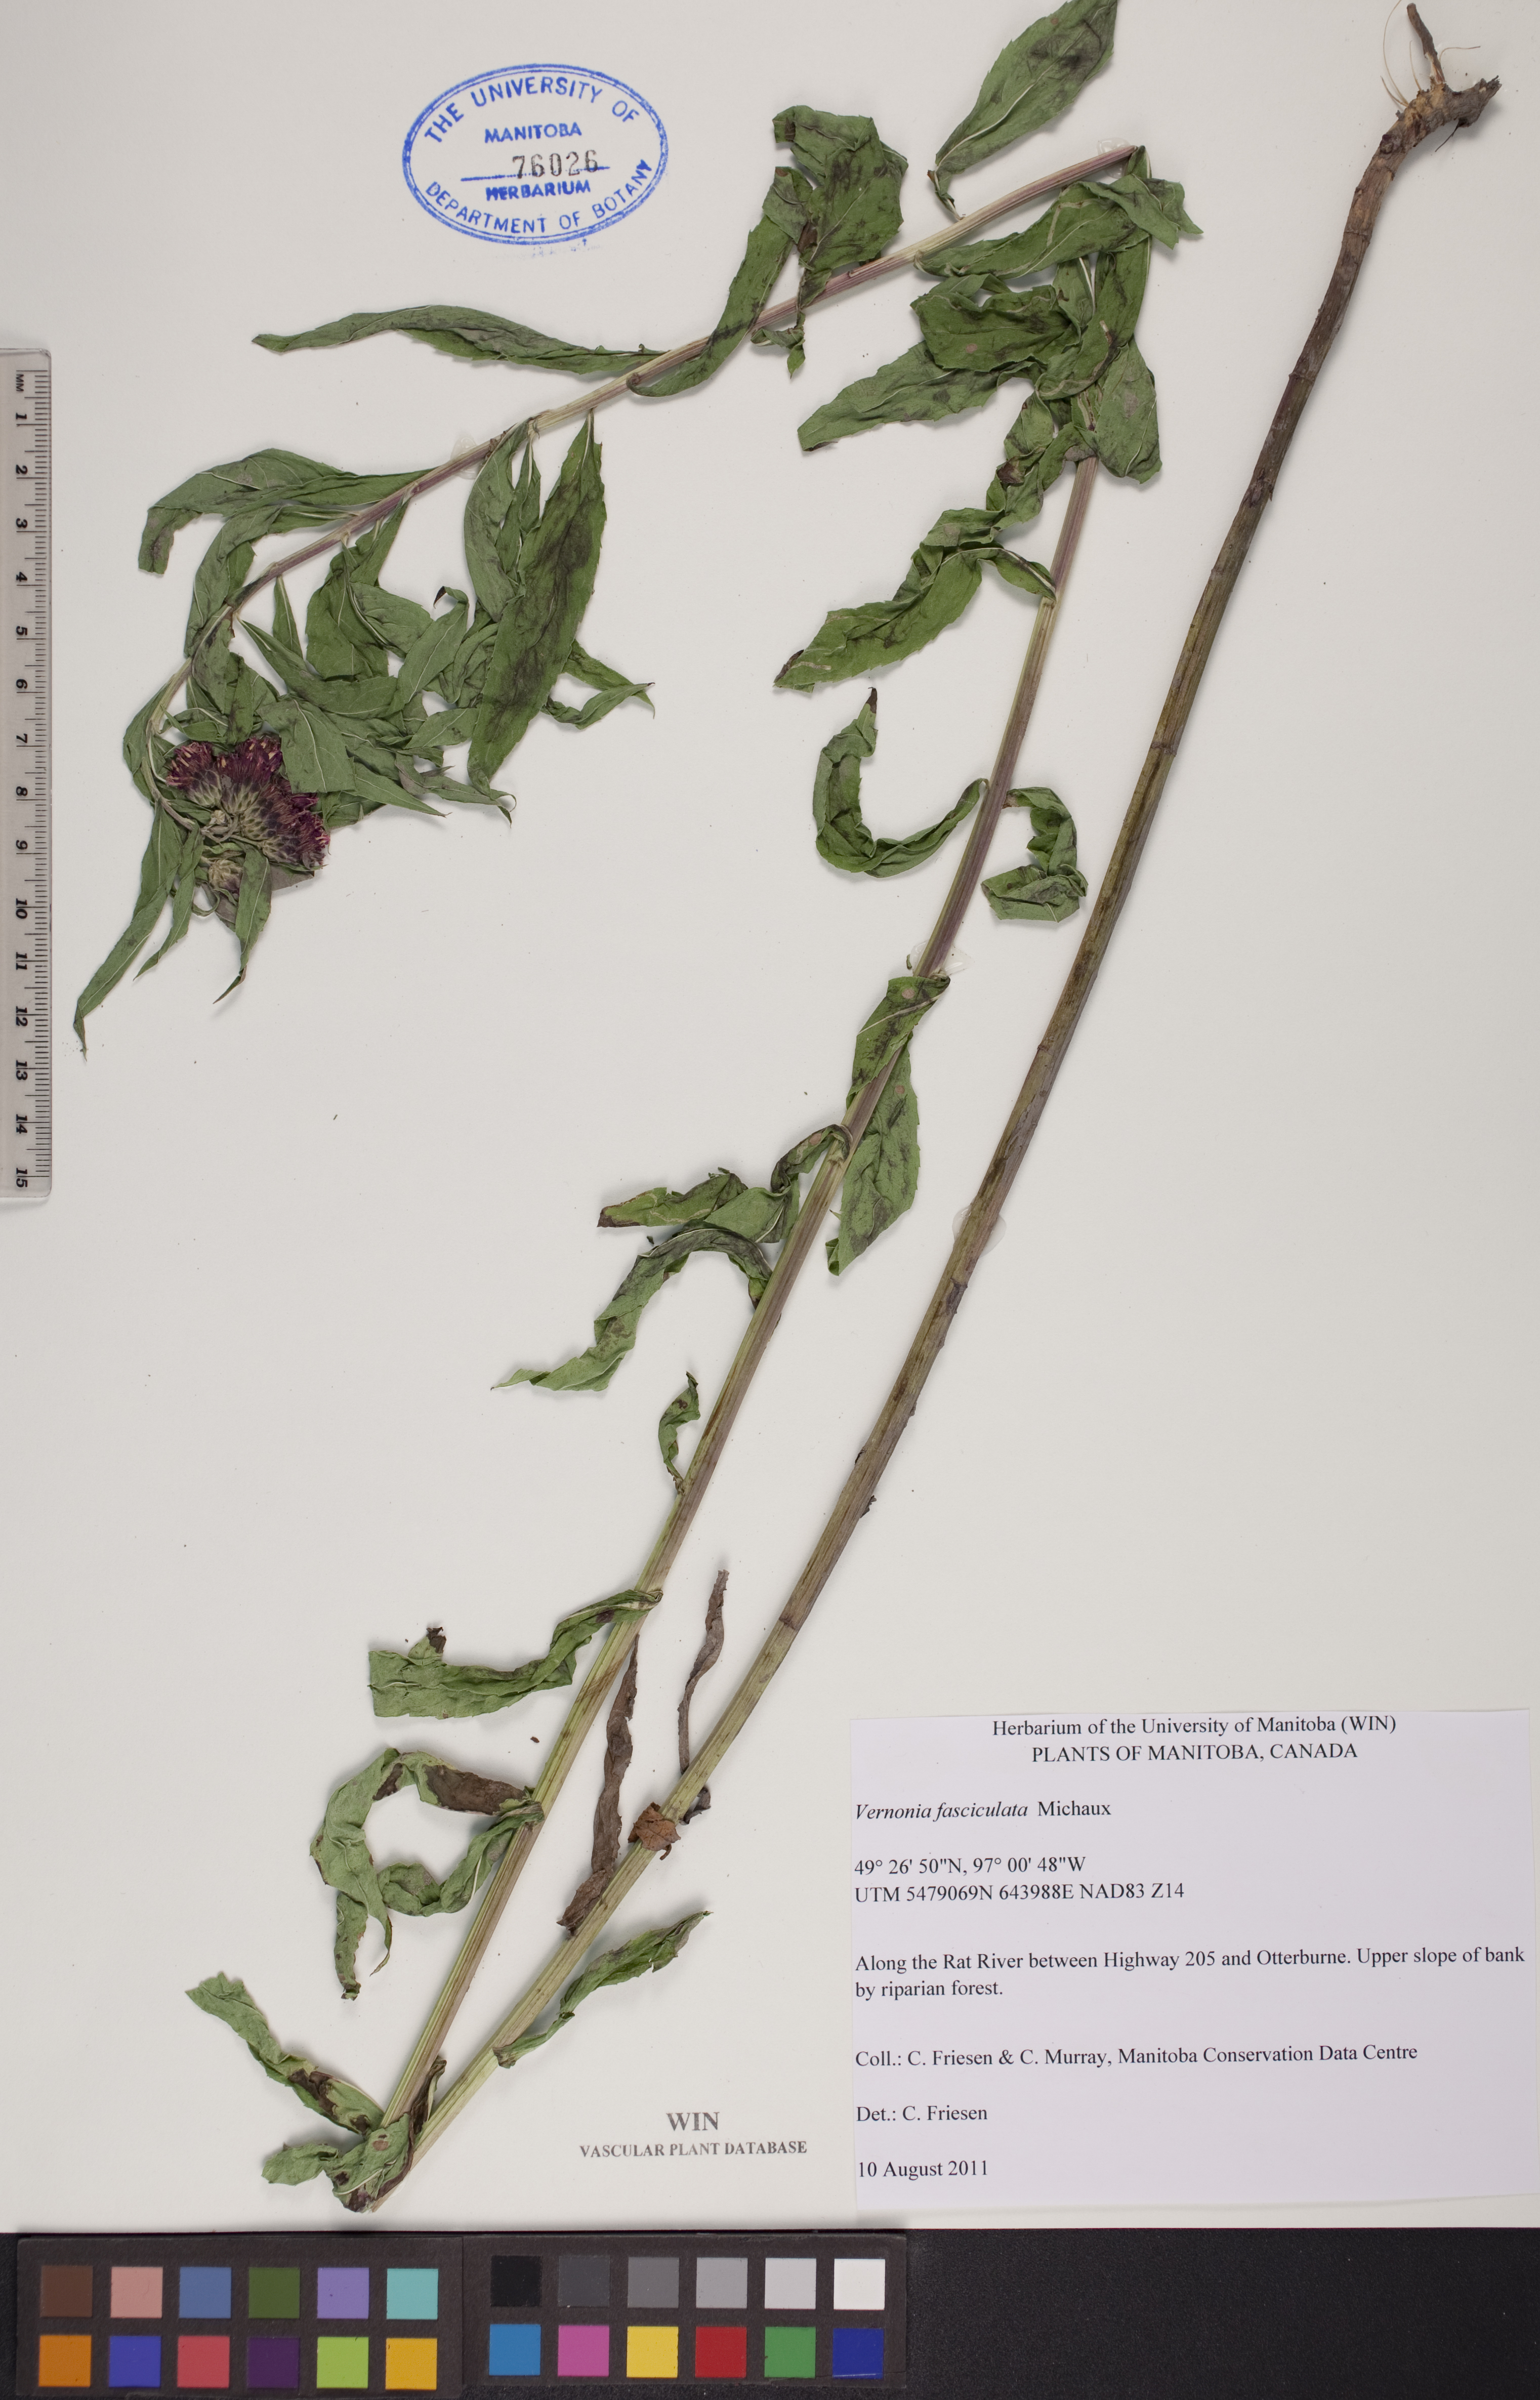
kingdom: Plantae
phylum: Tracheophyta
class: Magnoliopsida
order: Asterales
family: Asteraceae
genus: Vernonia
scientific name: Vernonia fasciculata
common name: Fascicled ironweed
